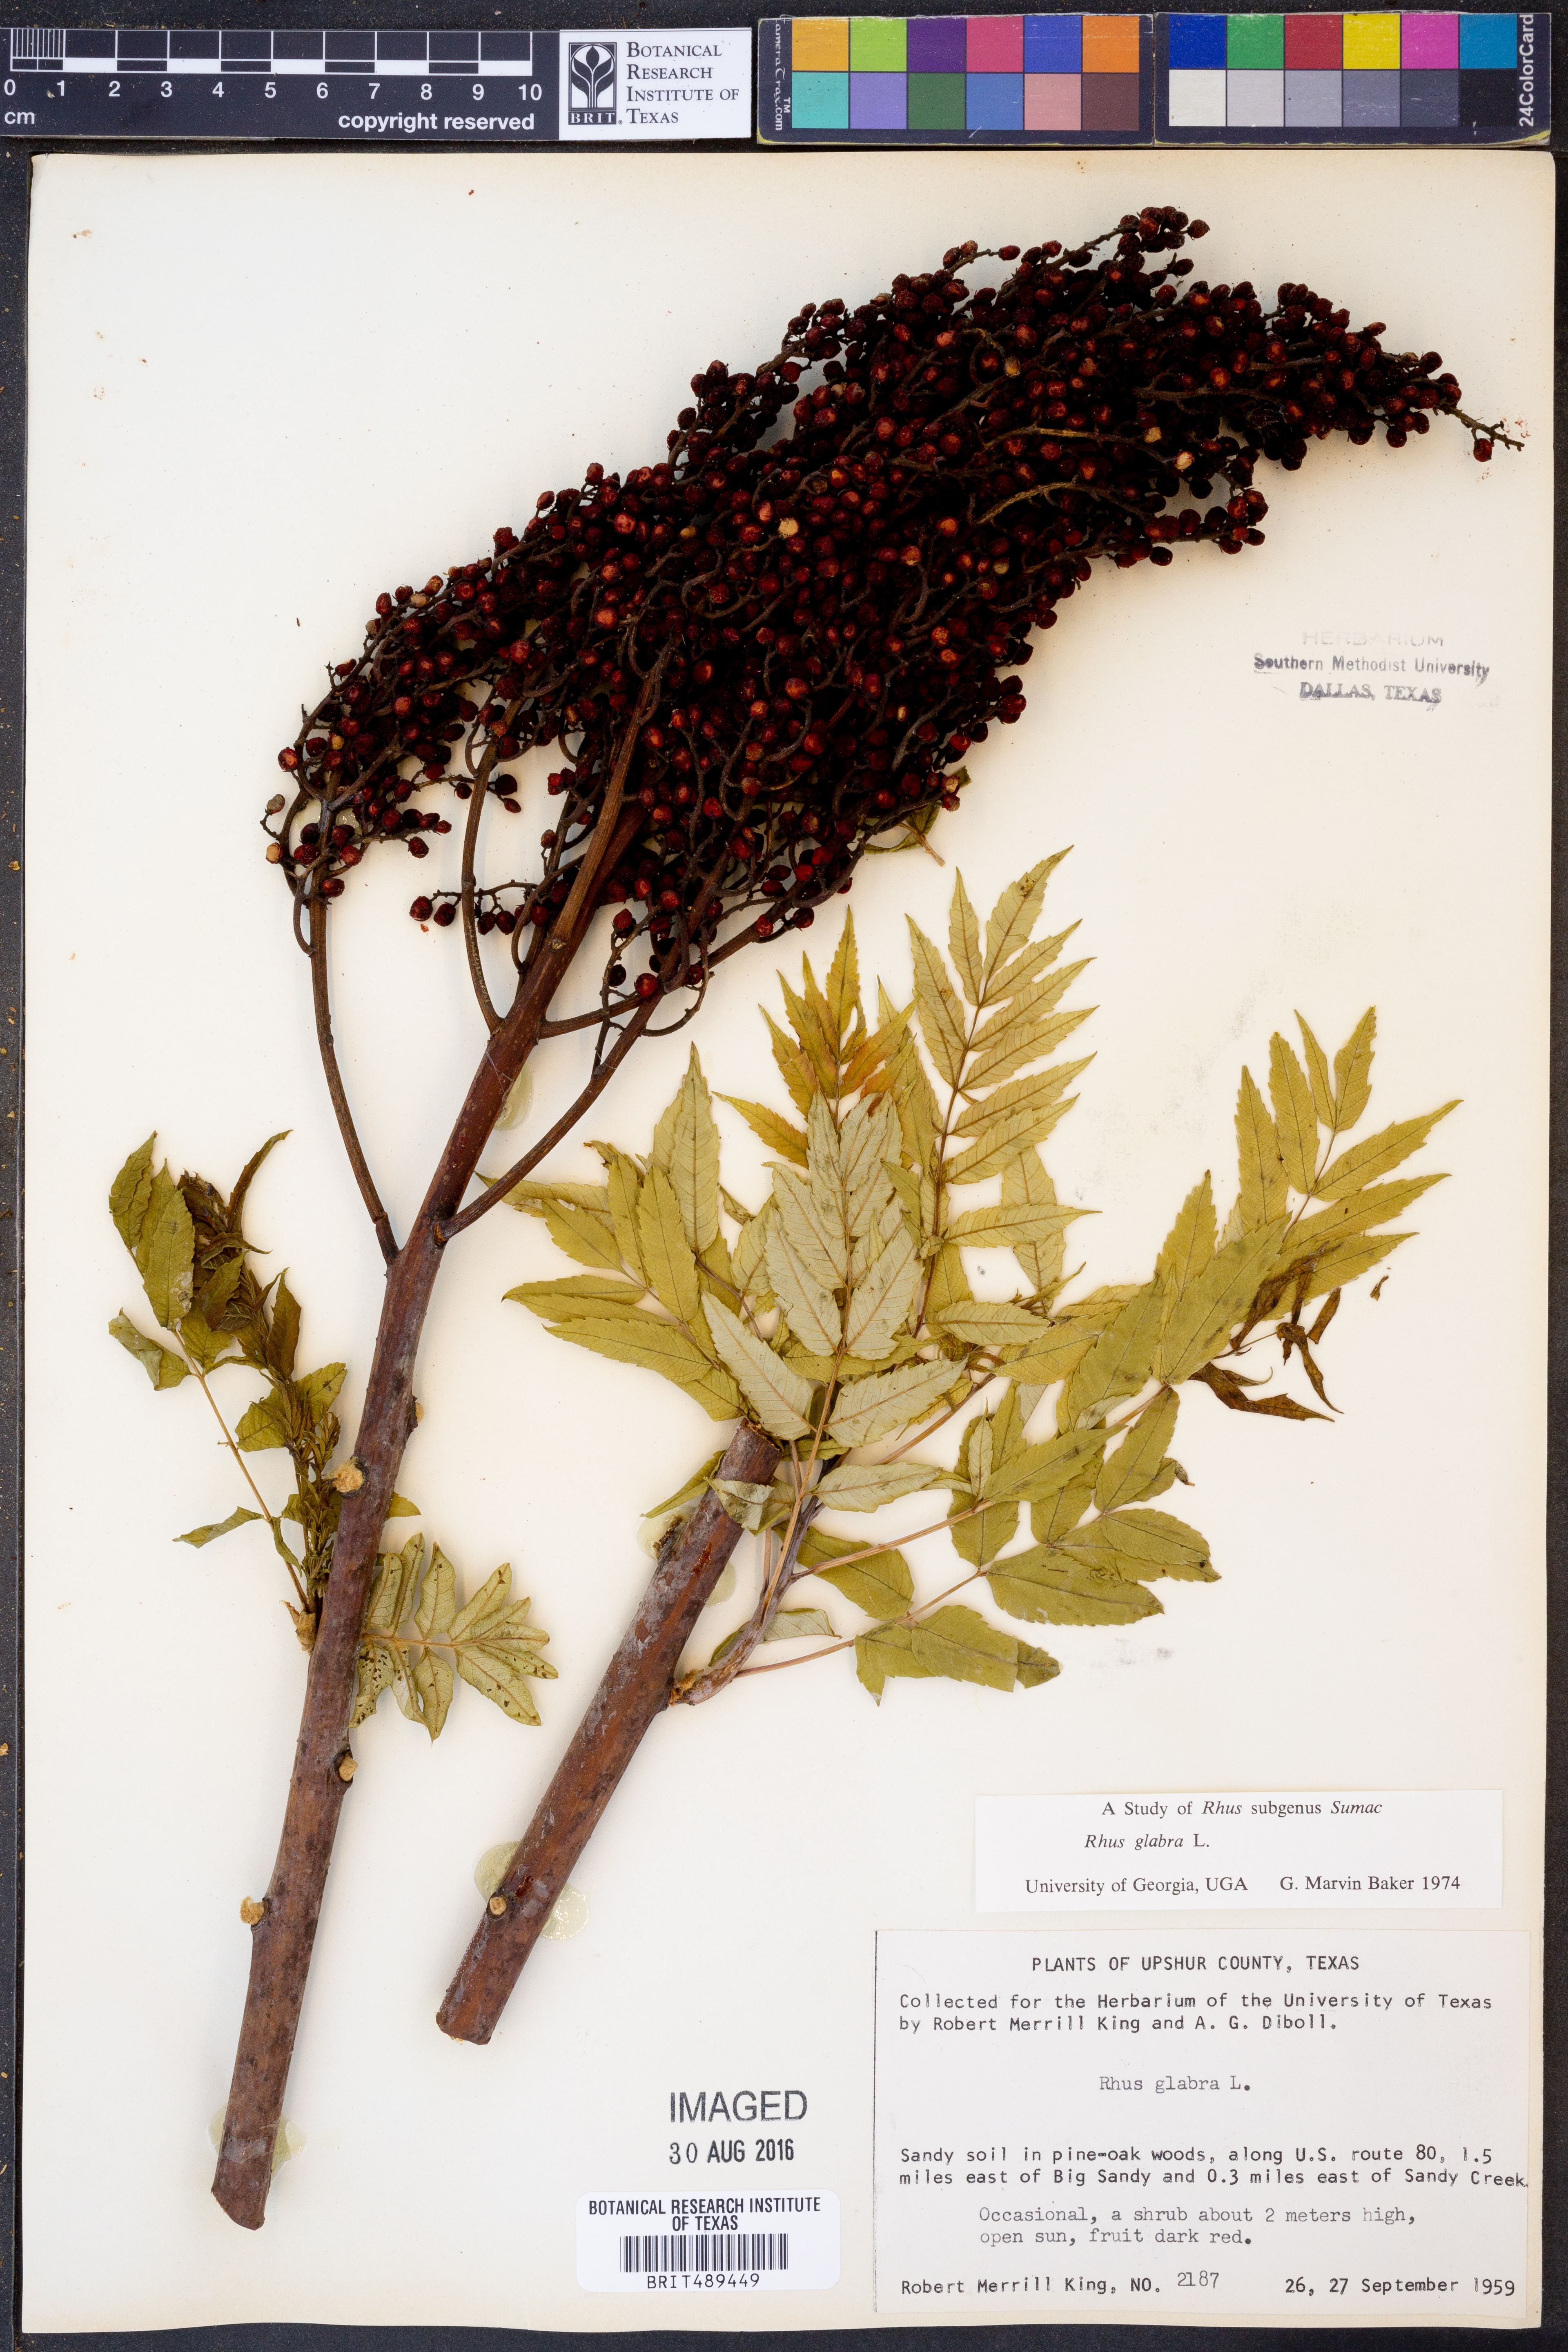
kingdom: Plantae
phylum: Tracheophyta
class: Magnoliopsida
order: Sapindales
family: Anacardiaceae
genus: Rhus
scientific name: Rhus glabra
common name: Scarlet sumac
